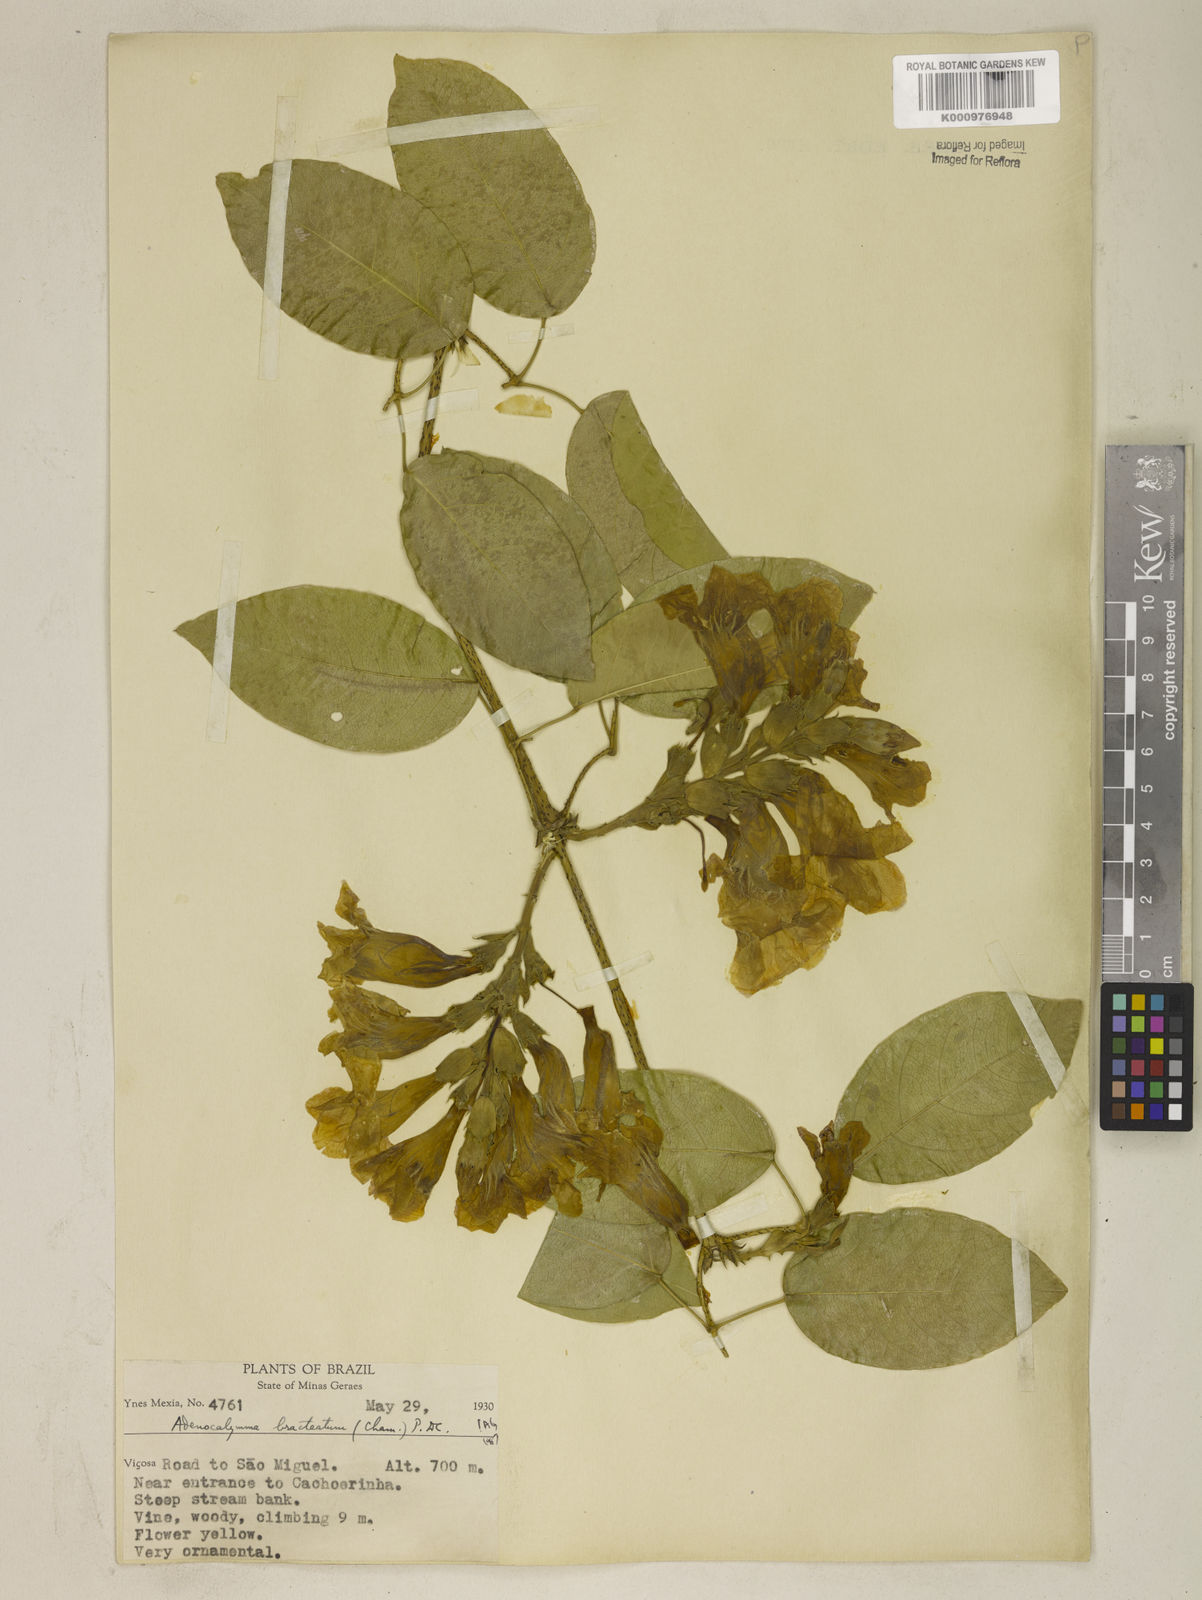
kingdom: Plantae
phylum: Tracheophyta
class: Magnoliopsida
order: Lamiales
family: Bignoniaceae
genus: Adenocalymma
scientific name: Adenocalymma bracteatum
